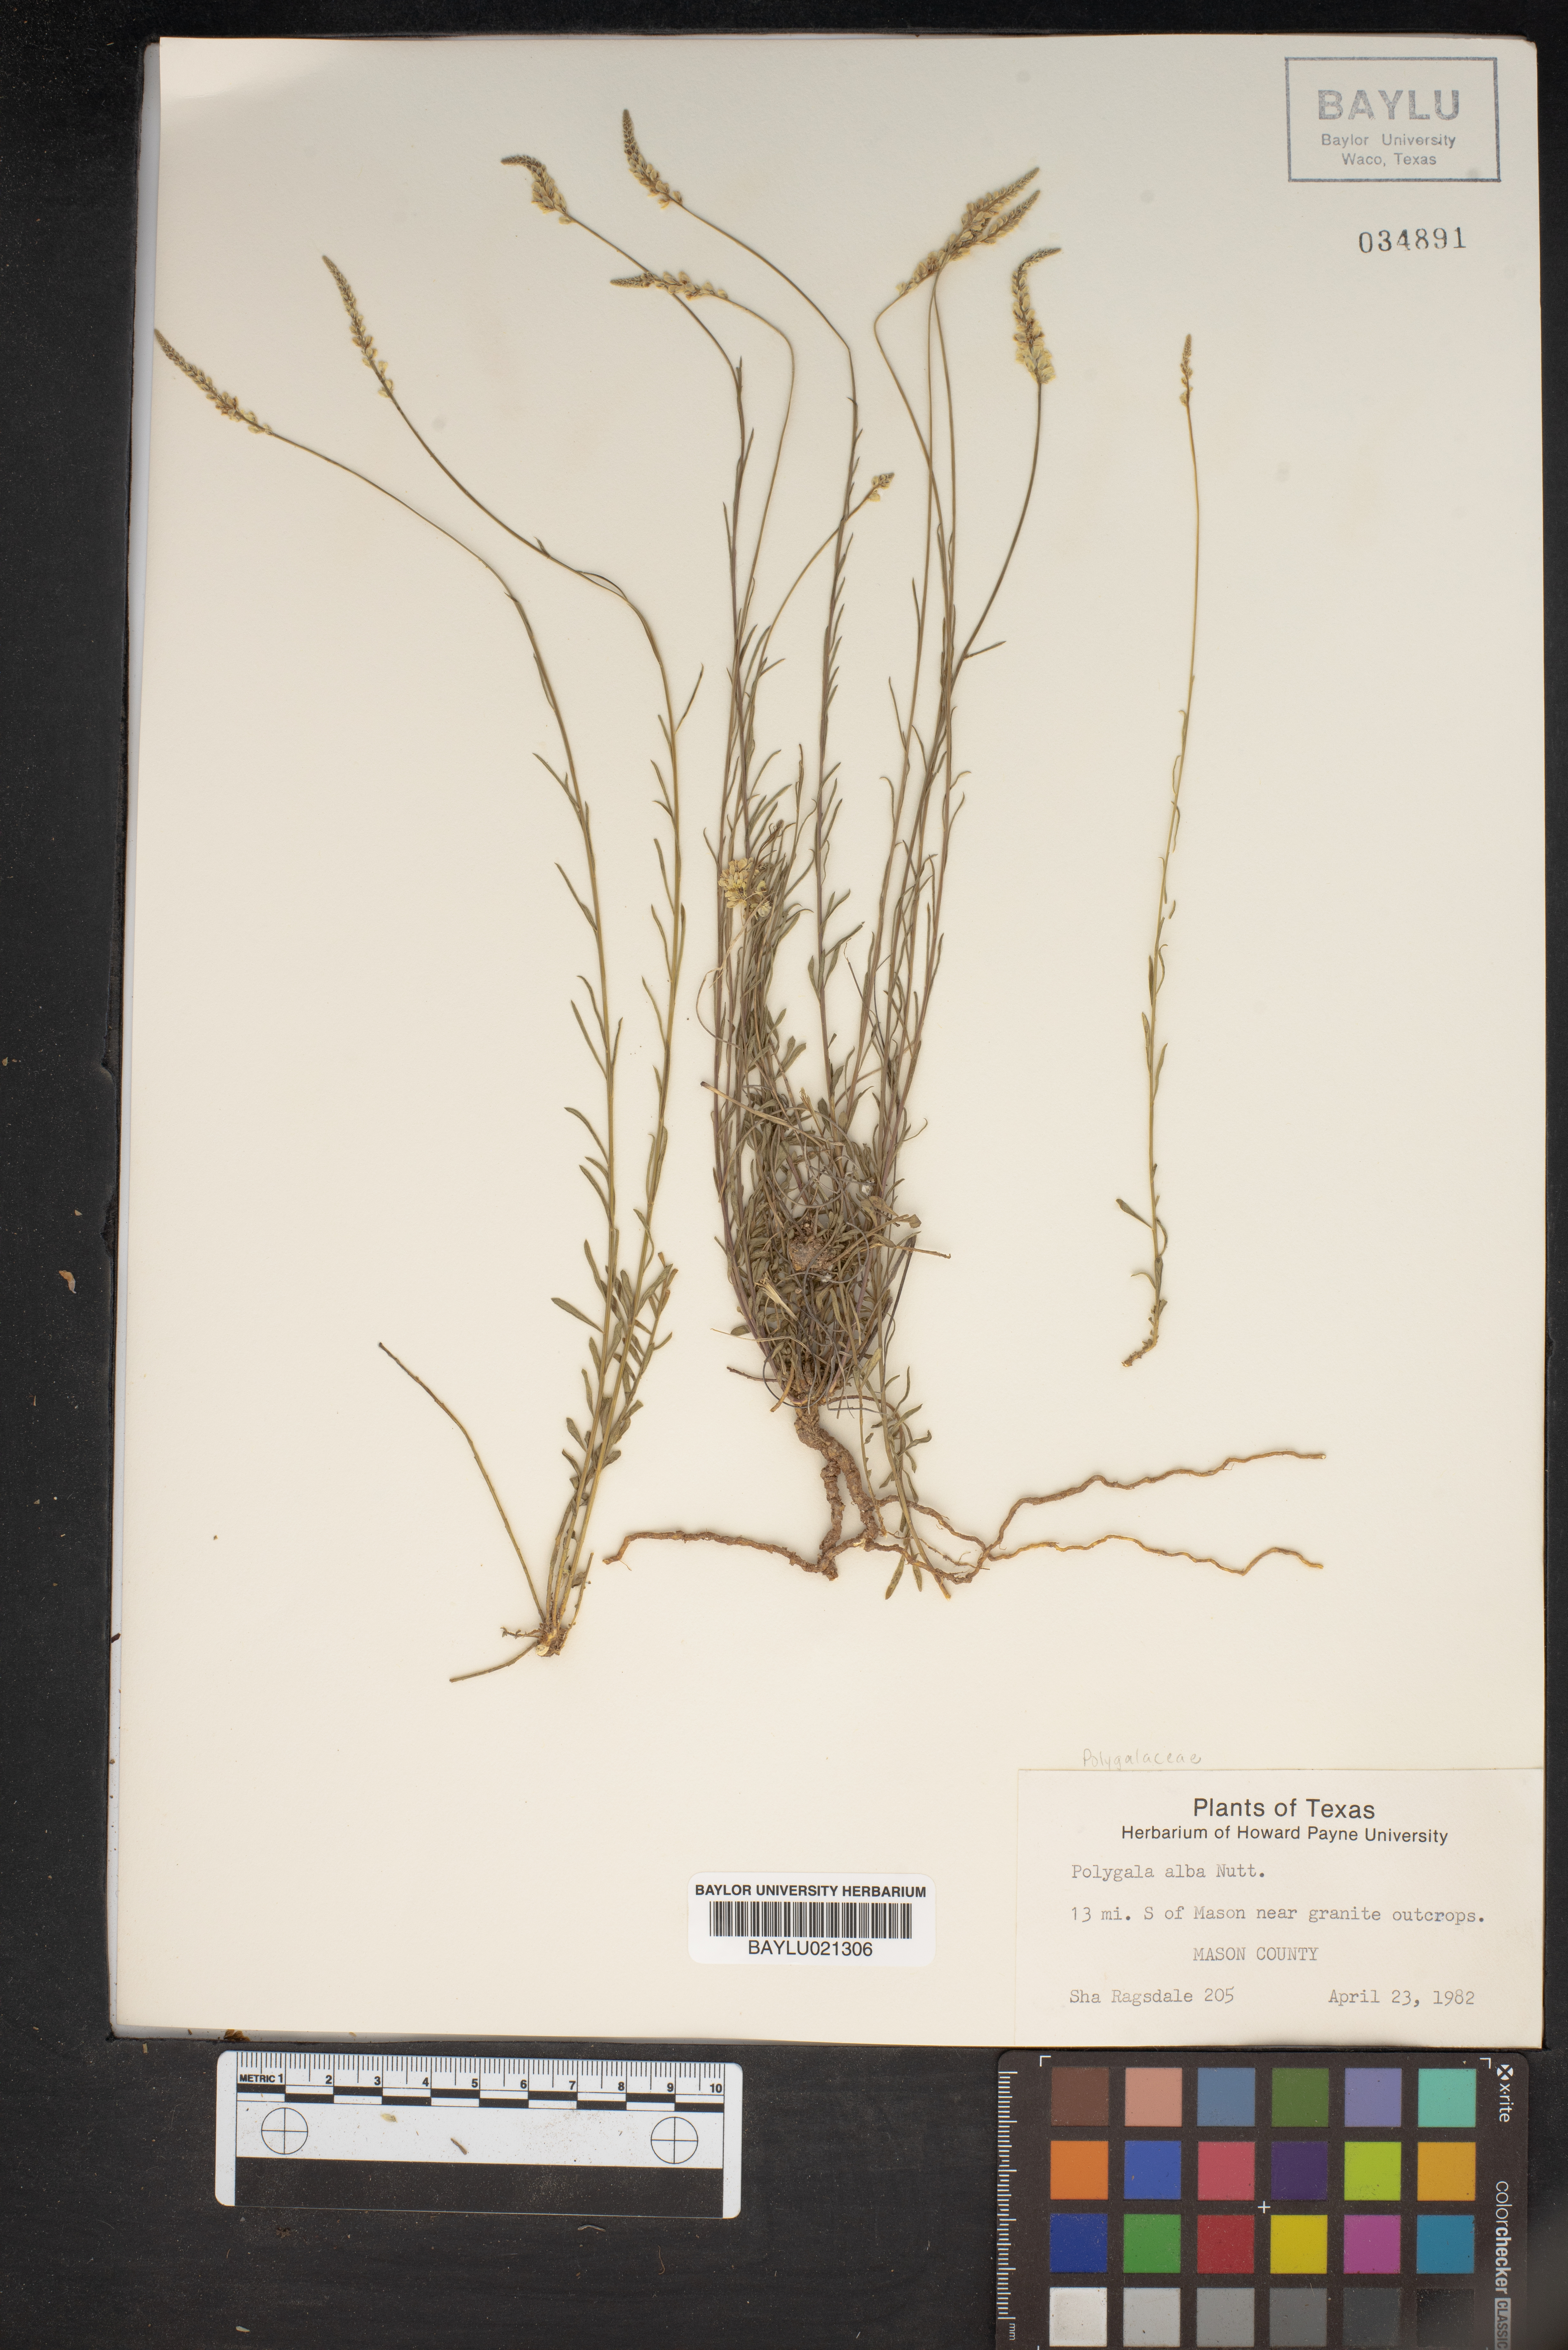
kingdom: Plantae
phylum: Tracheophyta
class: Magnoliopsida
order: Fabales
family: Polygalaceae
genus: Polygala
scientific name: Polygala alba
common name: White milkwort
